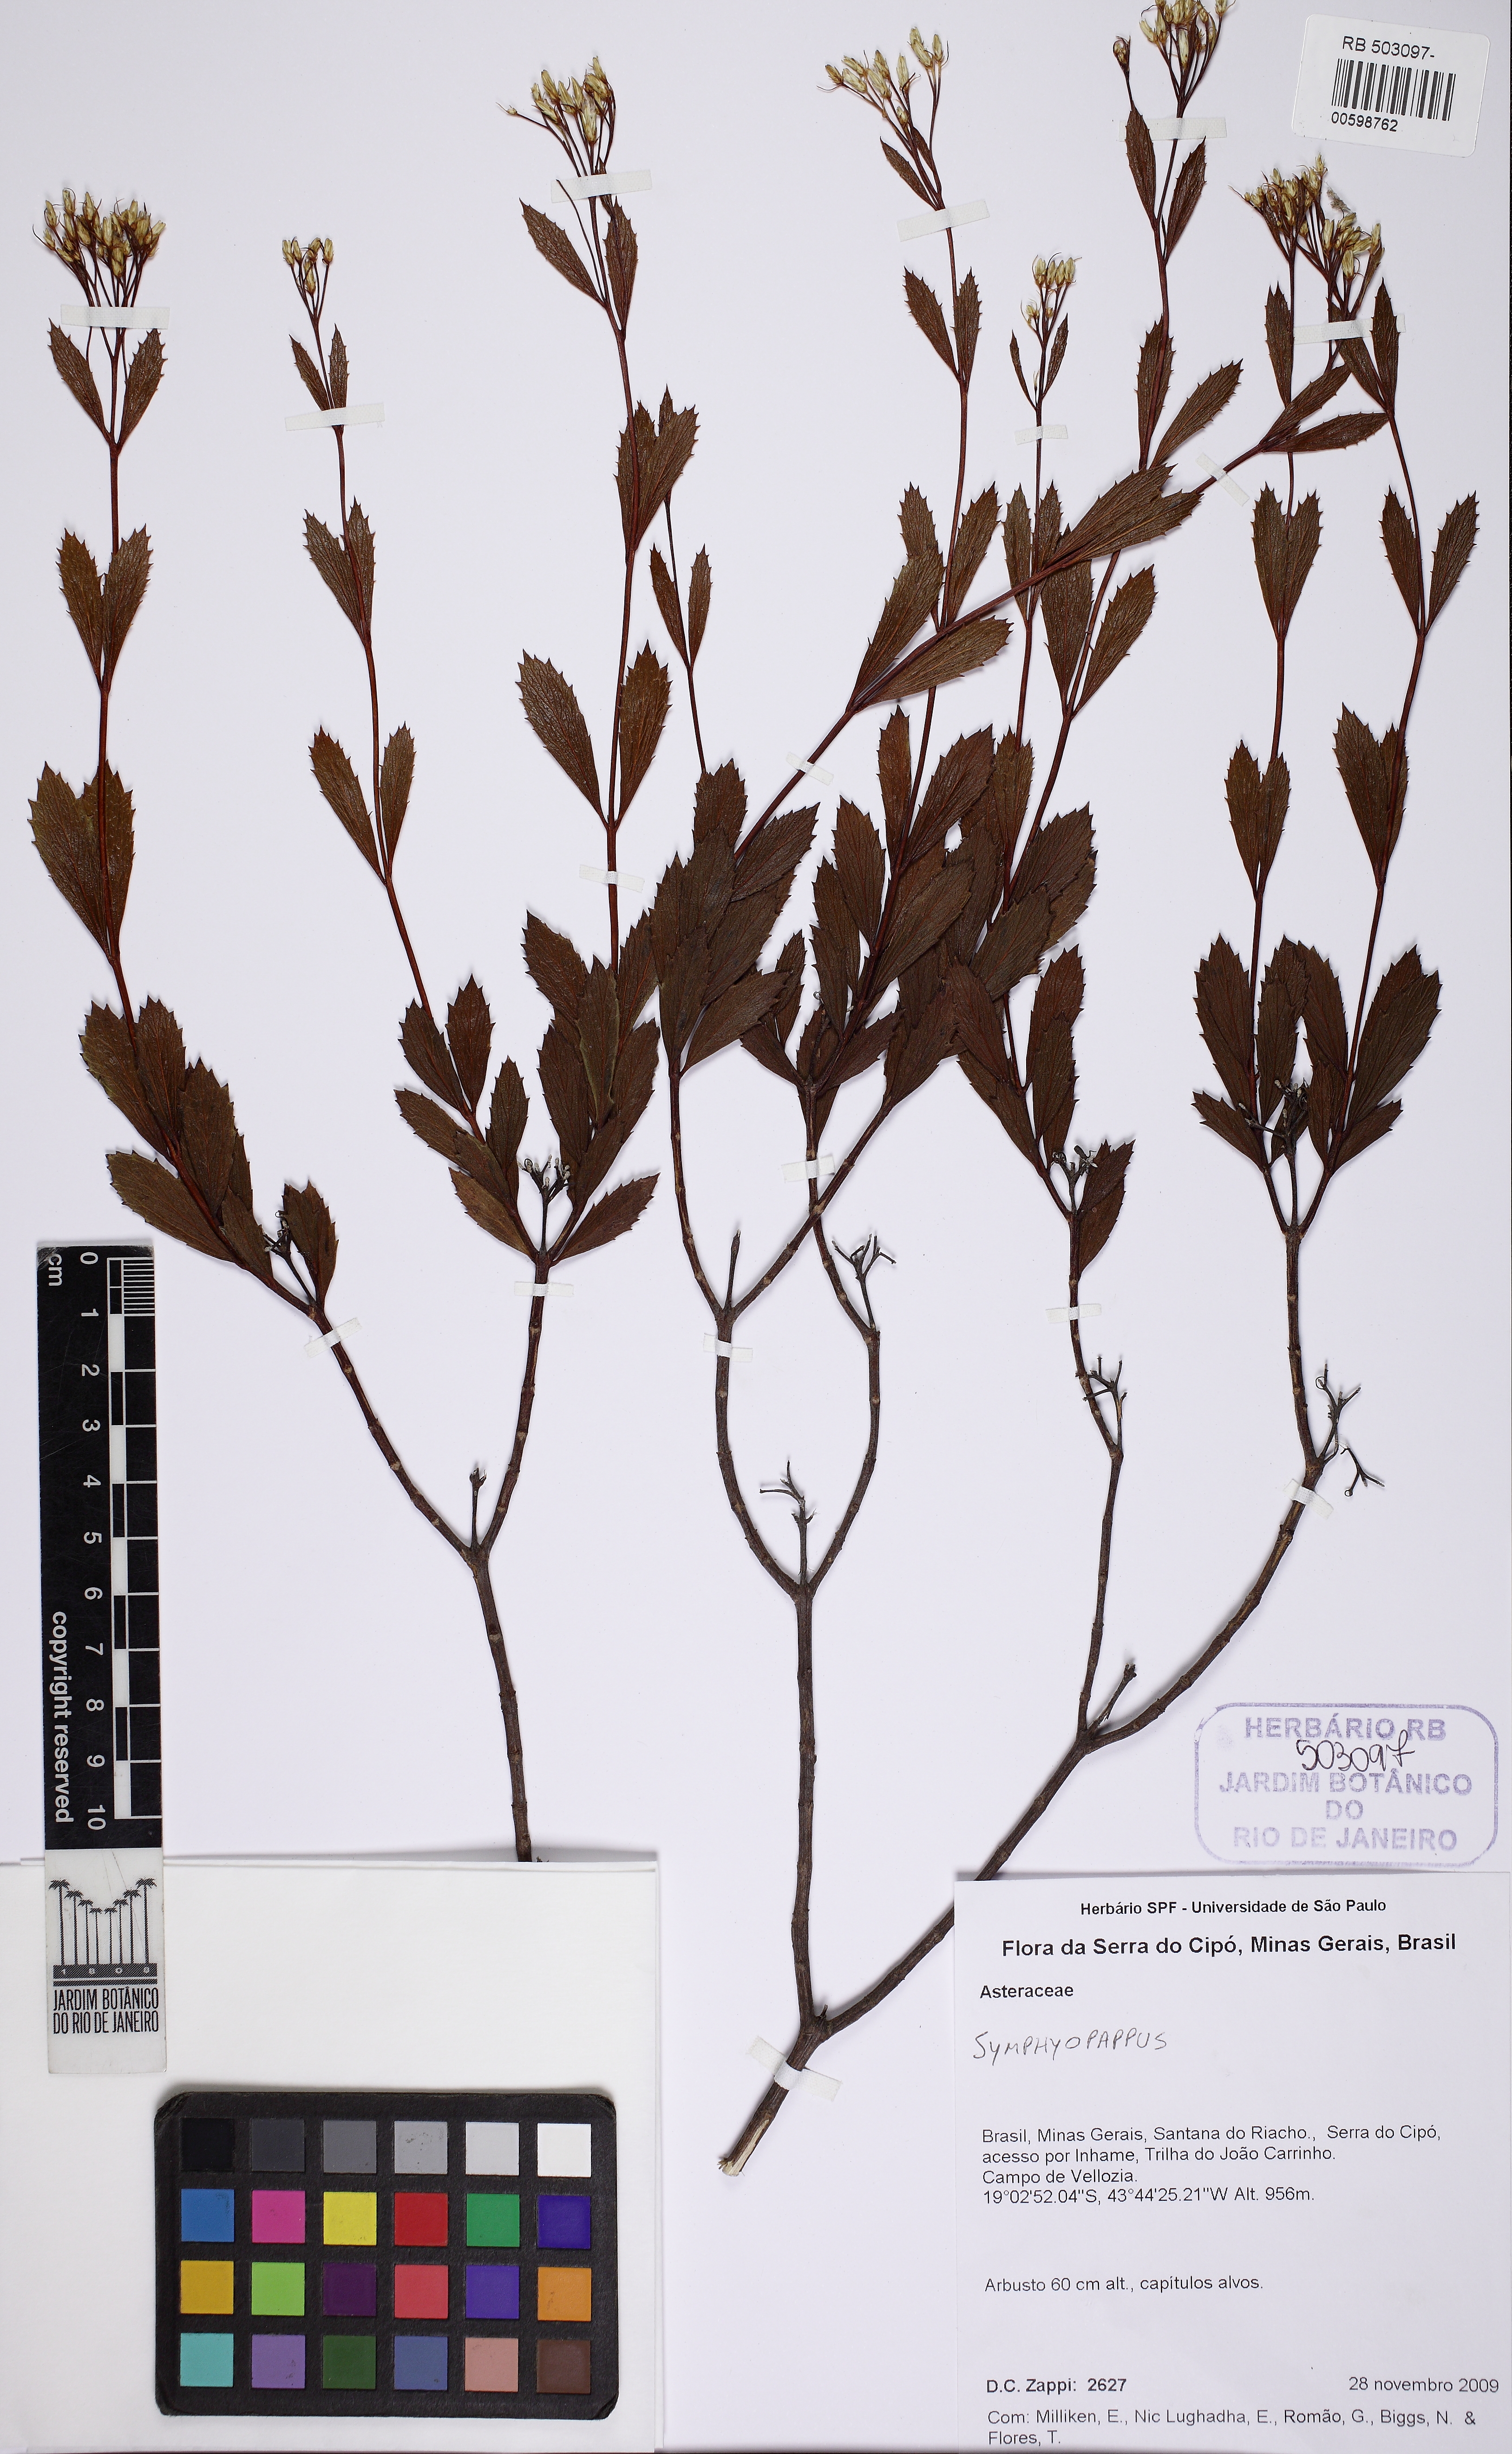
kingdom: Plantae
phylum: Tracheophyta
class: Magnoliopsida
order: Asterales
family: Asteraceae
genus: Symphyopappus
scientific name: Symphyopappus reticulatus
